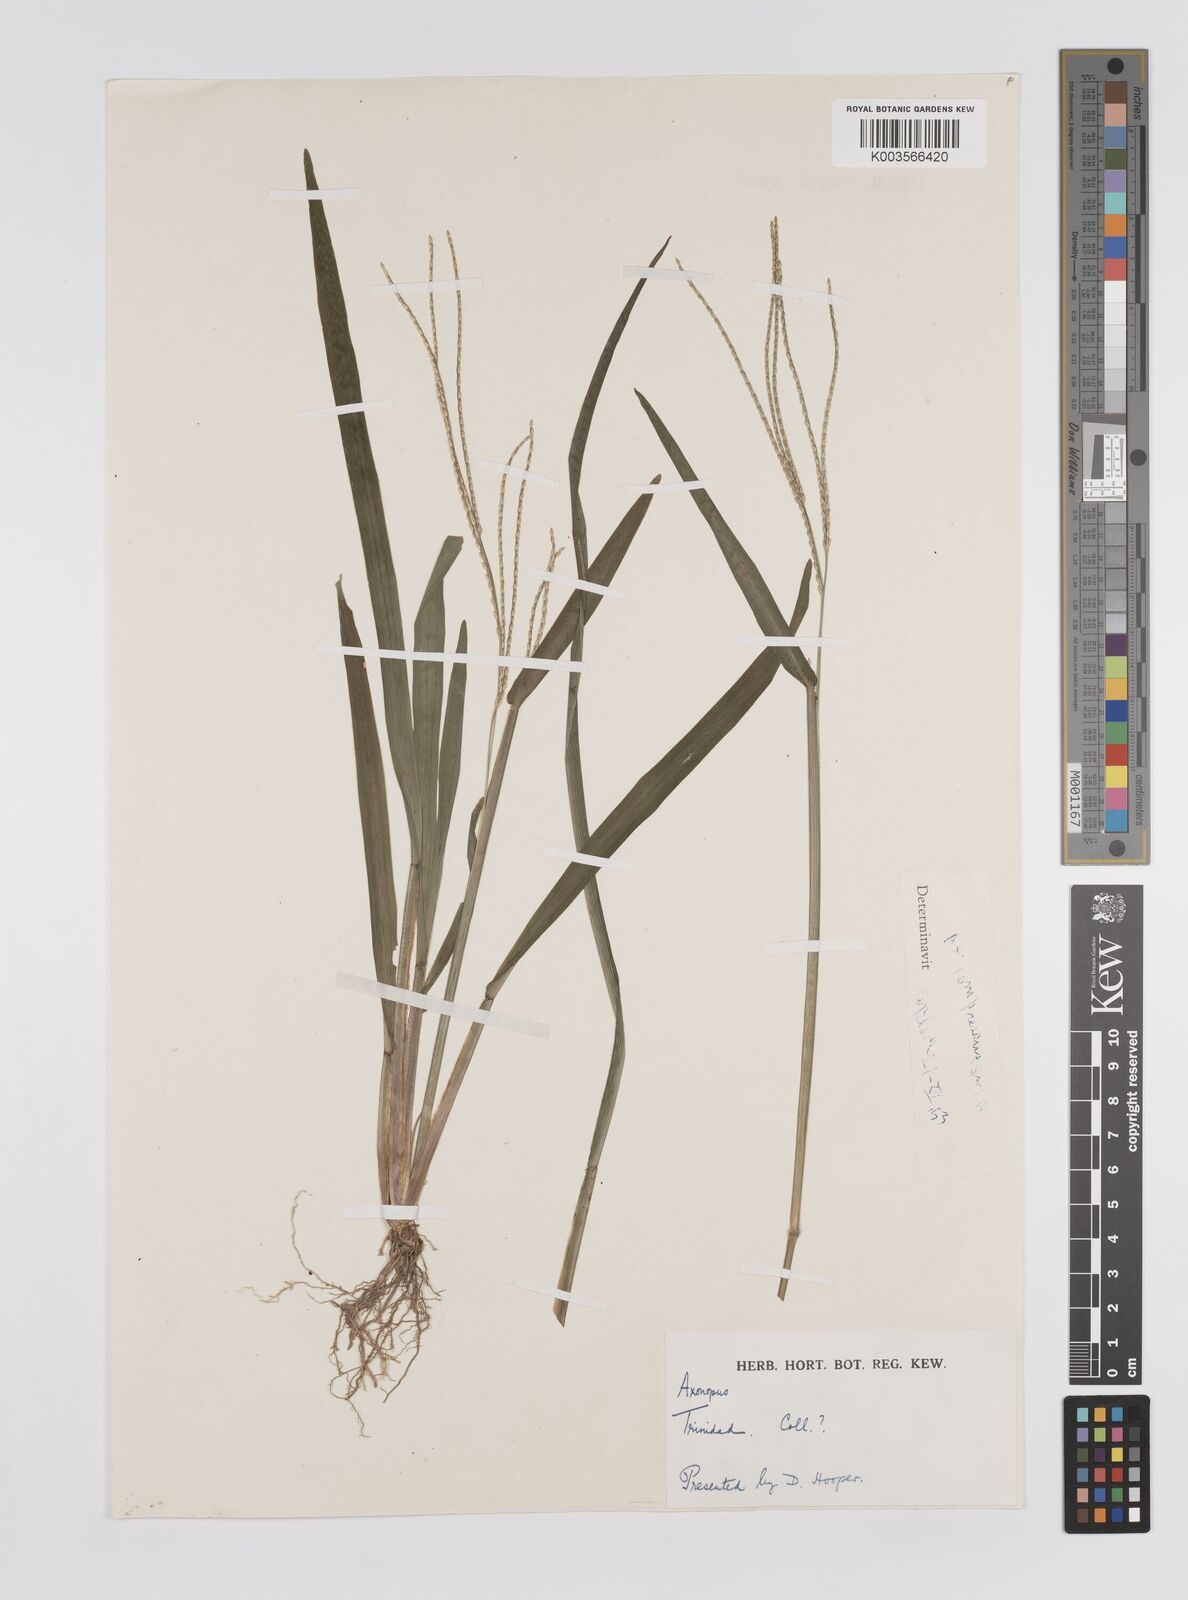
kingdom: Plantae
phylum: Tracheophyta
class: Liliopsida
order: Poales
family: Poaceae
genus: Axonopus
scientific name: Axonopus
